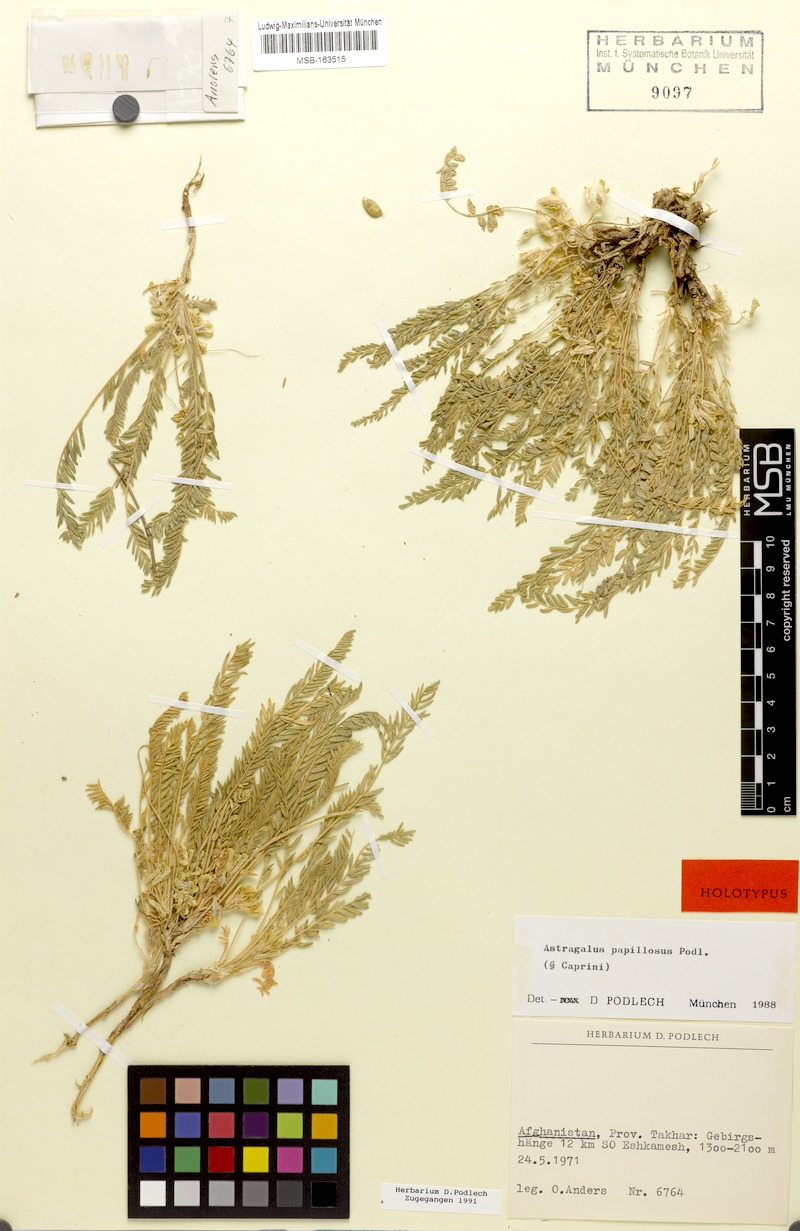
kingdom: Plantae
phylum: Tracheophyta
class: Magnoliopsida
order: Fabales
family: Fabaceae
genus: Astragalus
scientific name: Astragalus papillosus
